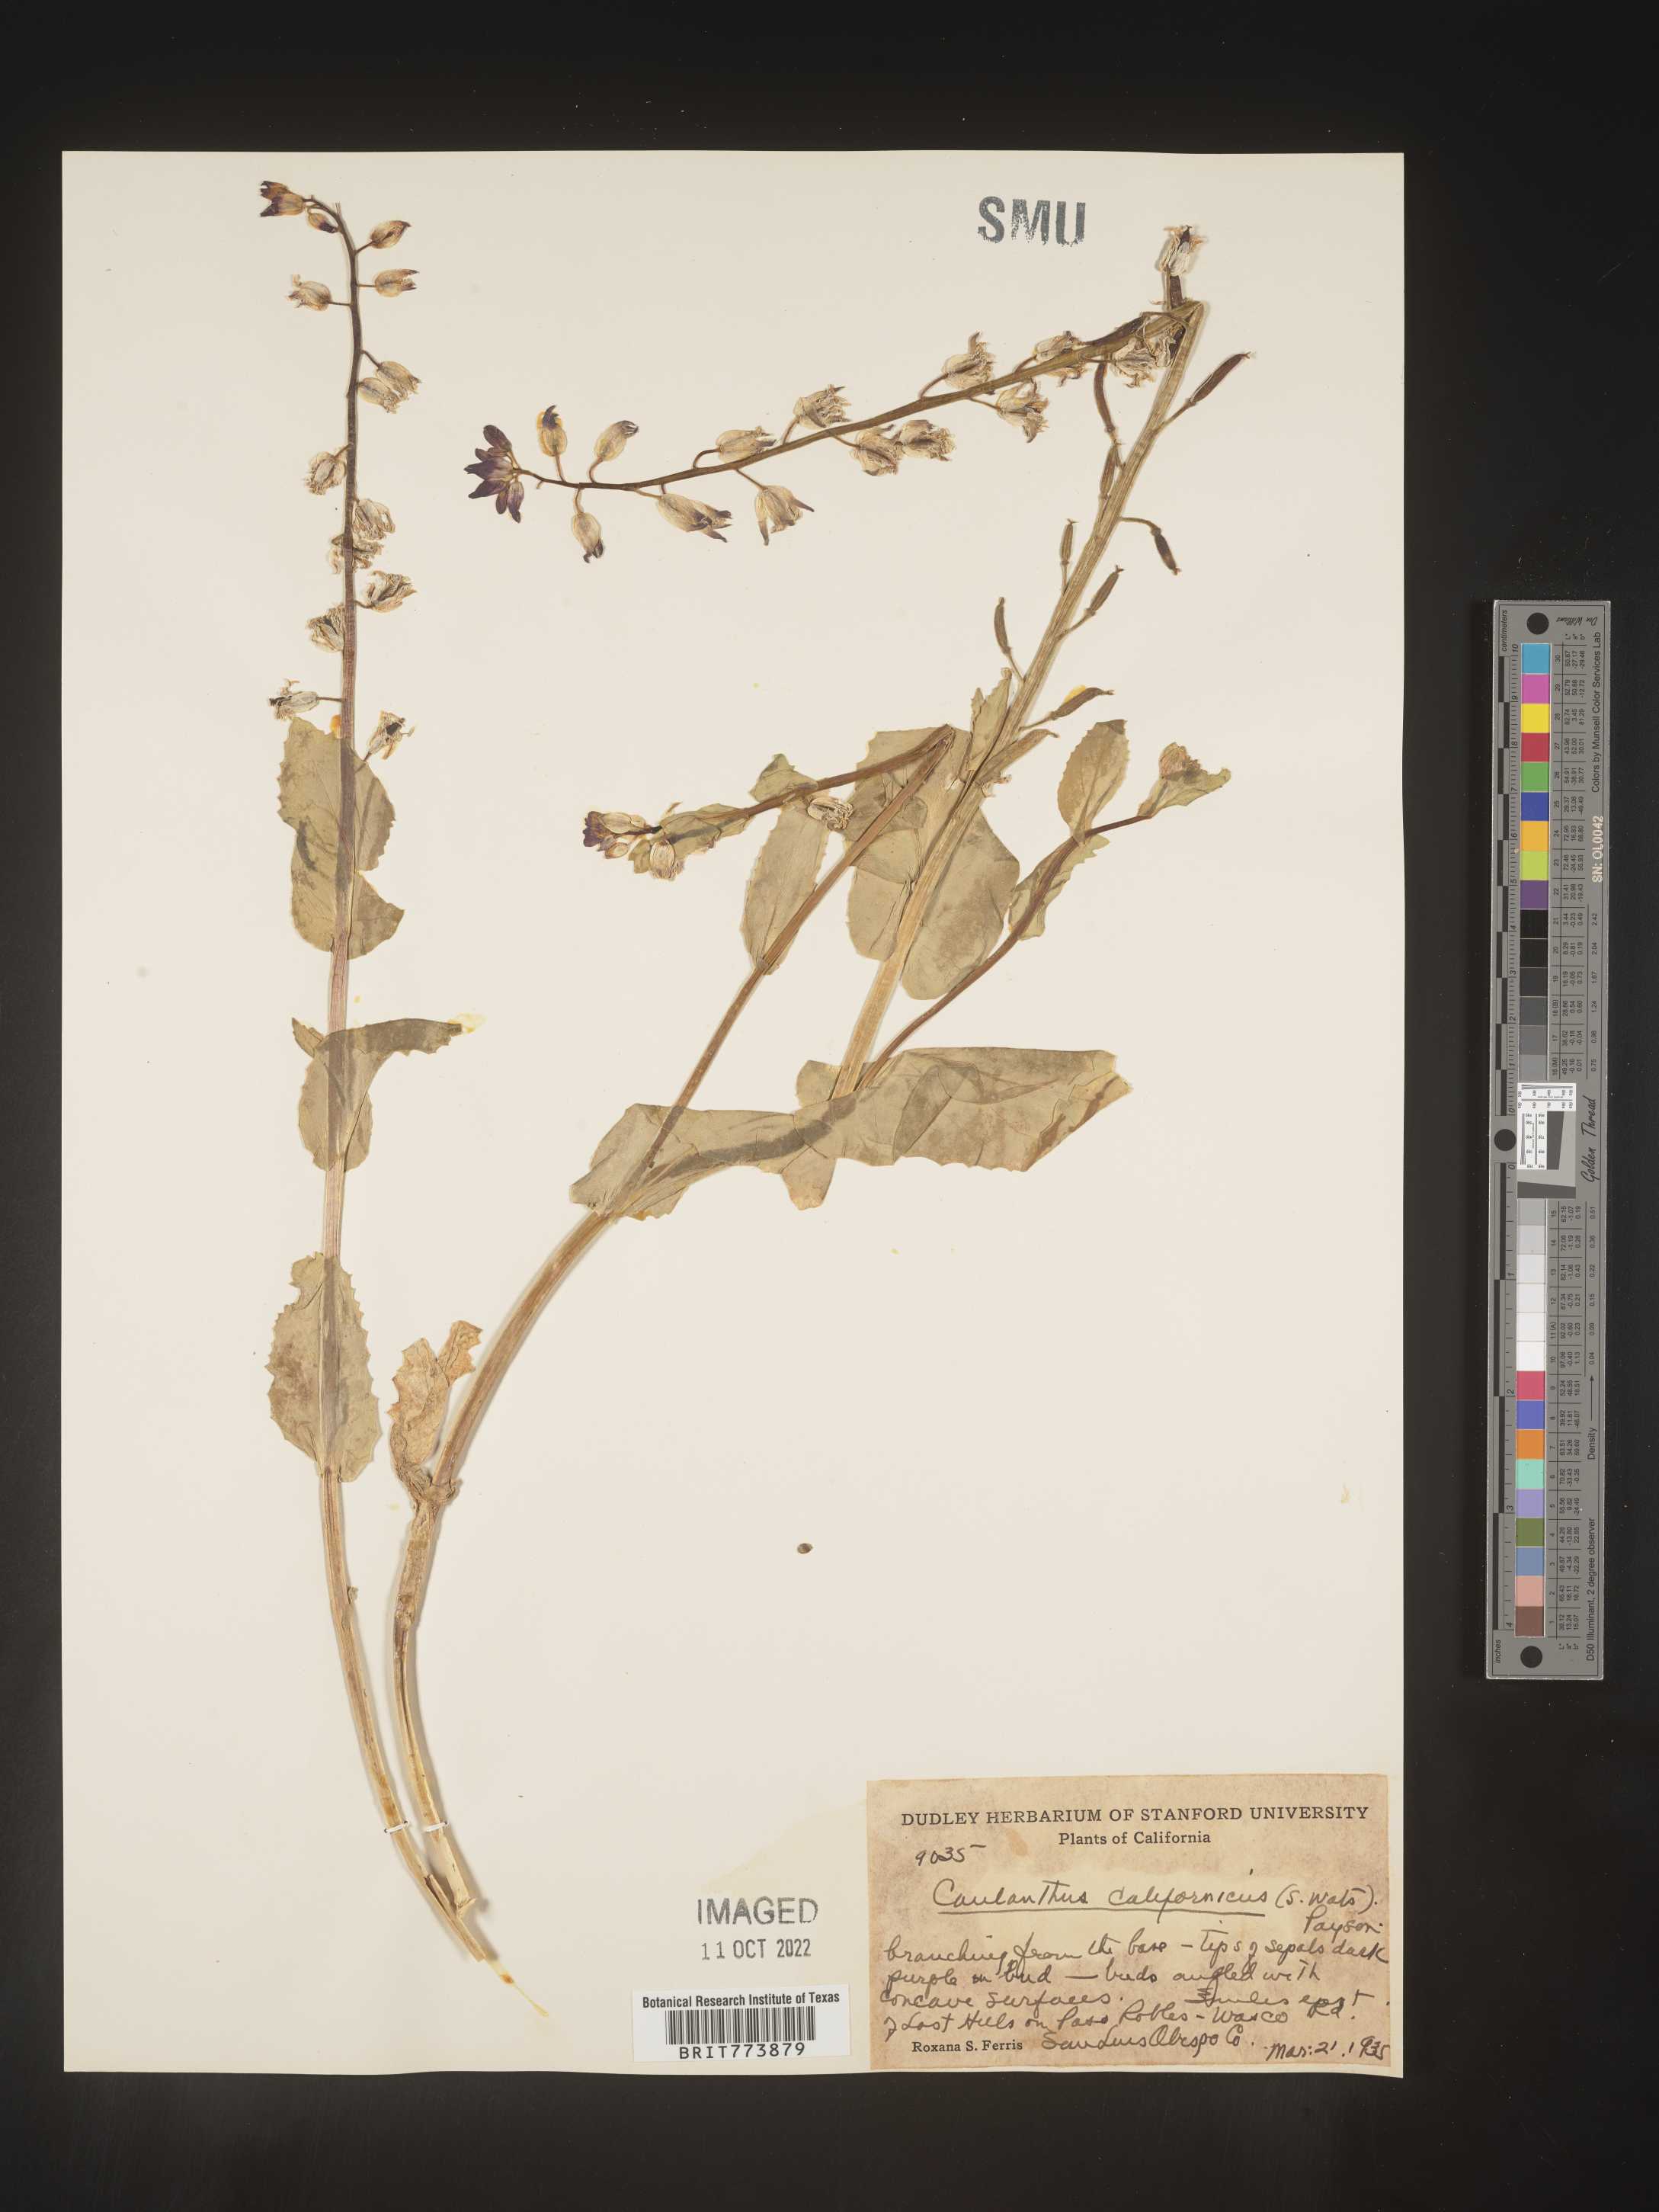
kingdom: Plantae
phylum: Tracheophyta
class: Magnoliopsida
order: Brassicales
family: Brassicaceae
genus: Streptanthus
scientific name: Streptanthus
